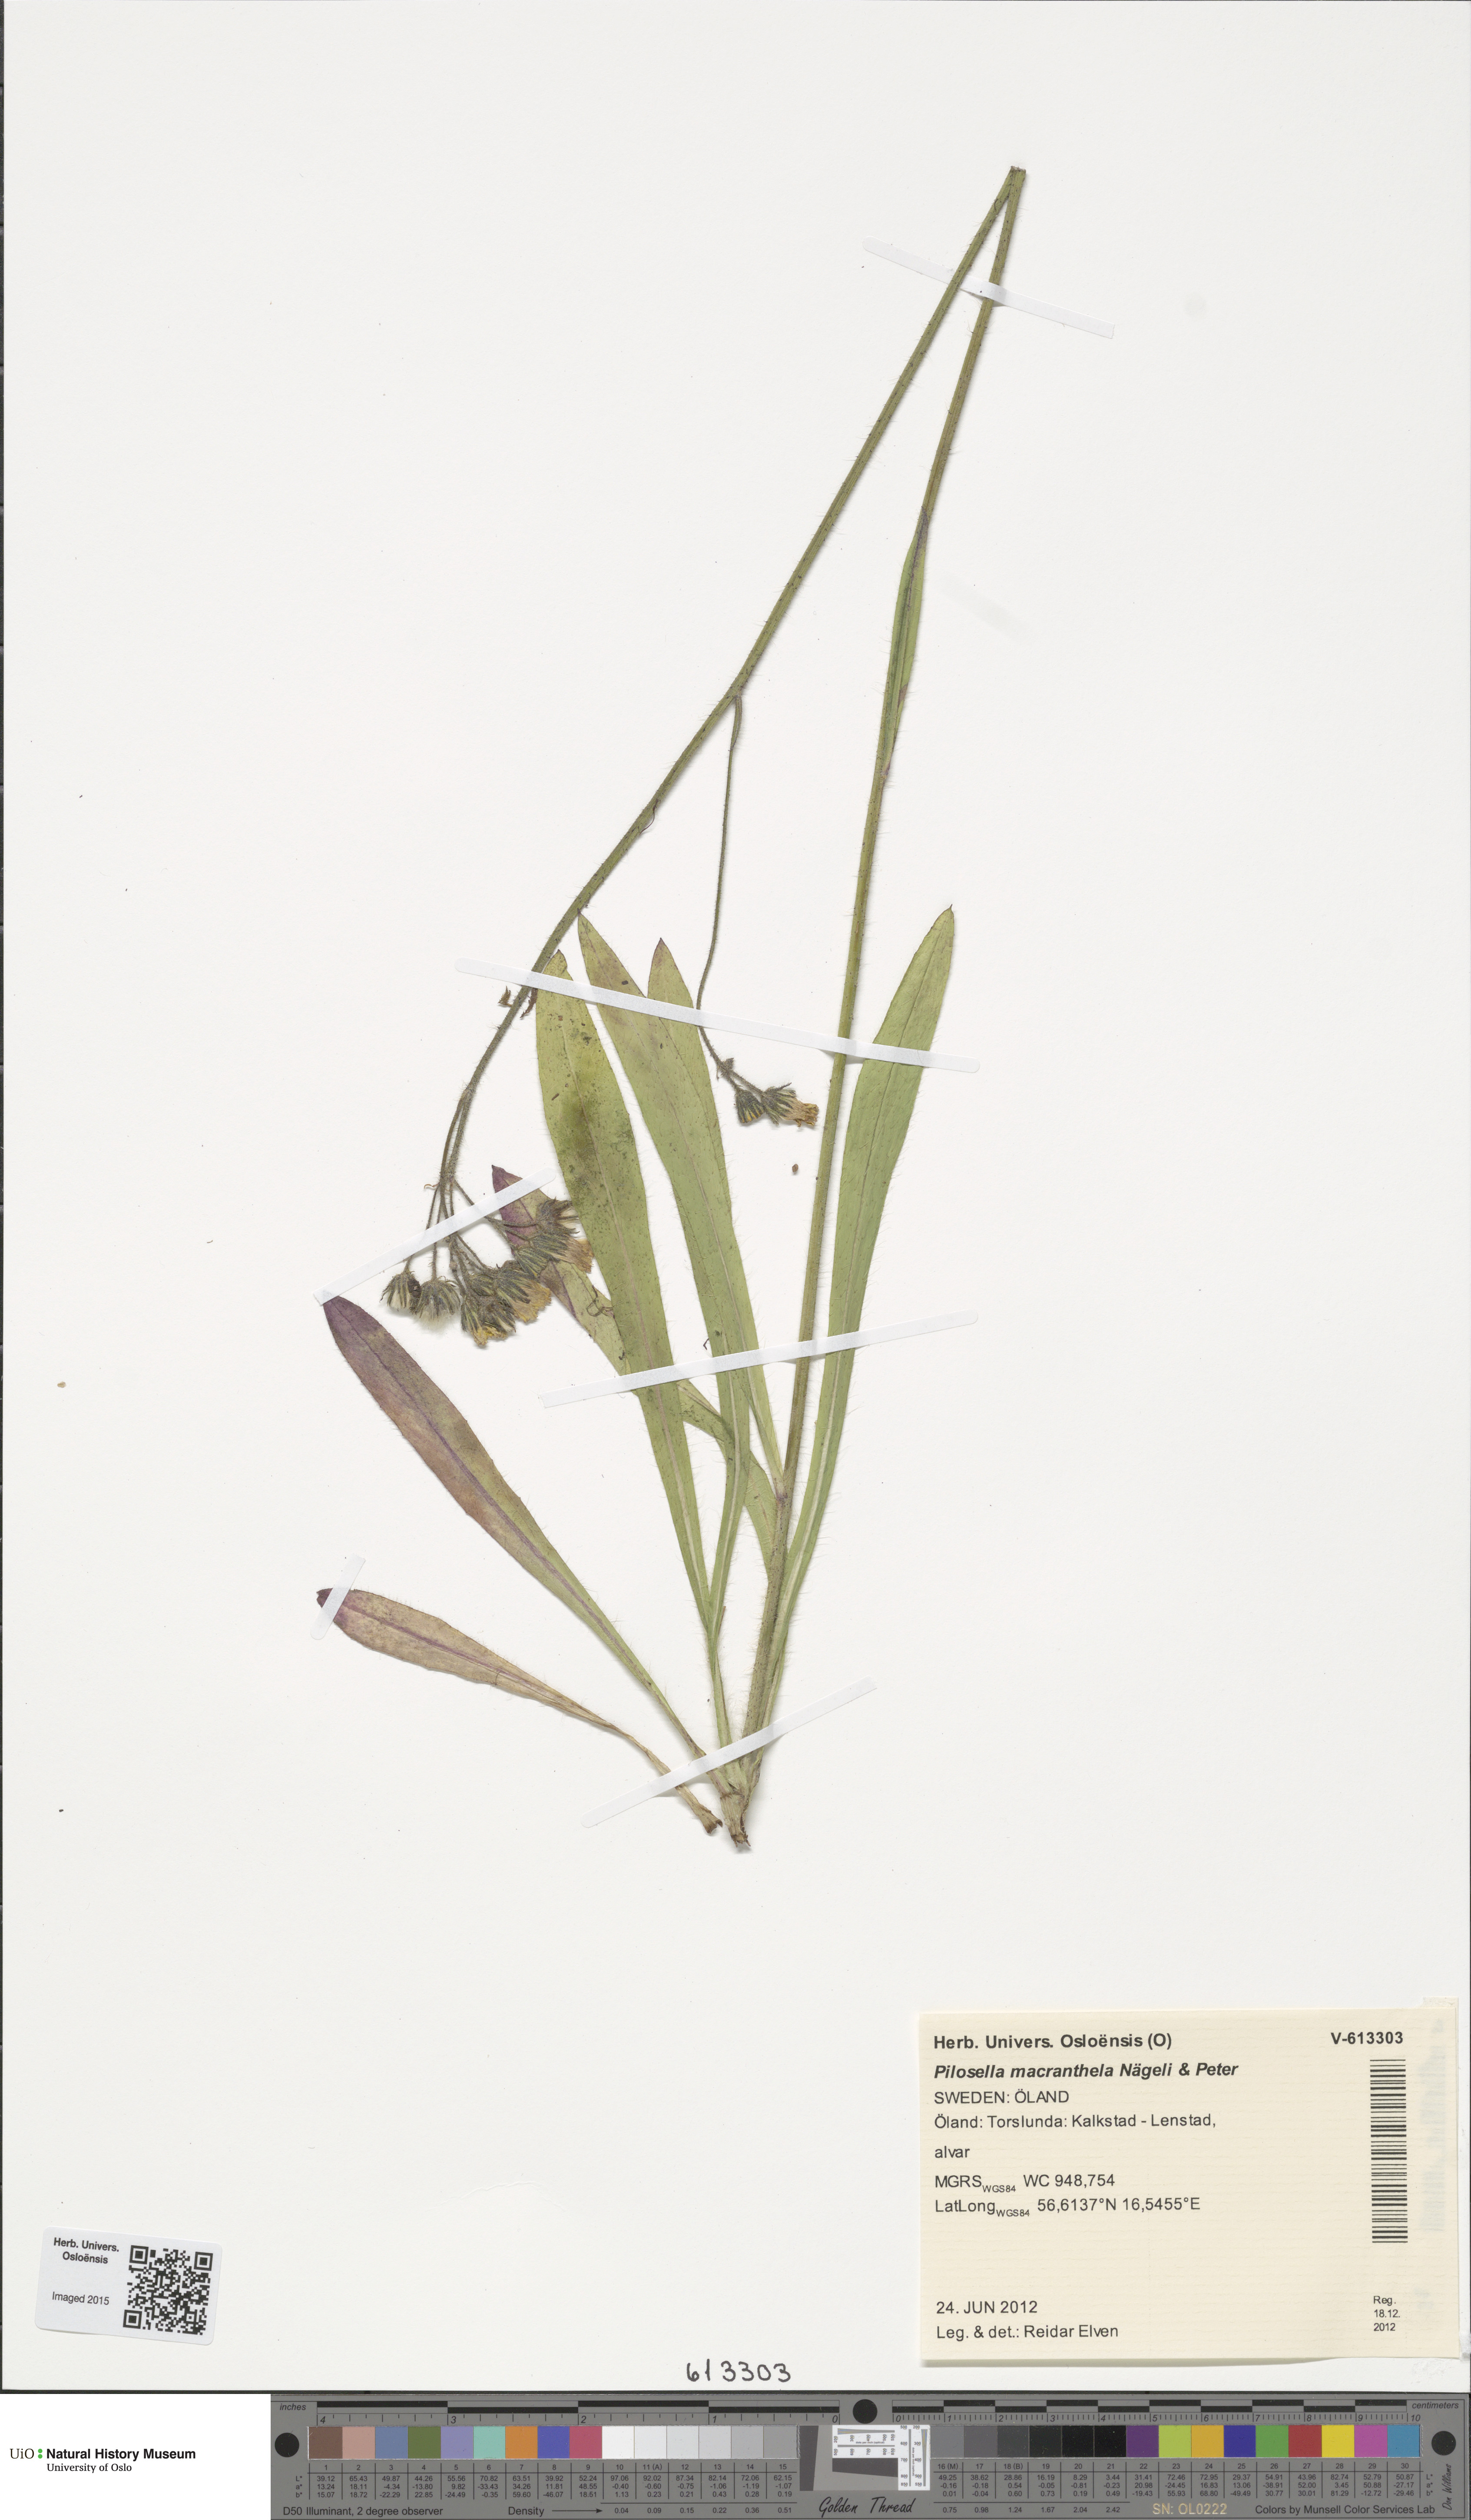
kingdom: Plantae
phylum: Tracheophyta
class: Magnoliopsida
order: Asterales
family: Asteraceae
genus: Pilosella
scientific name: Pilosella macranthela
